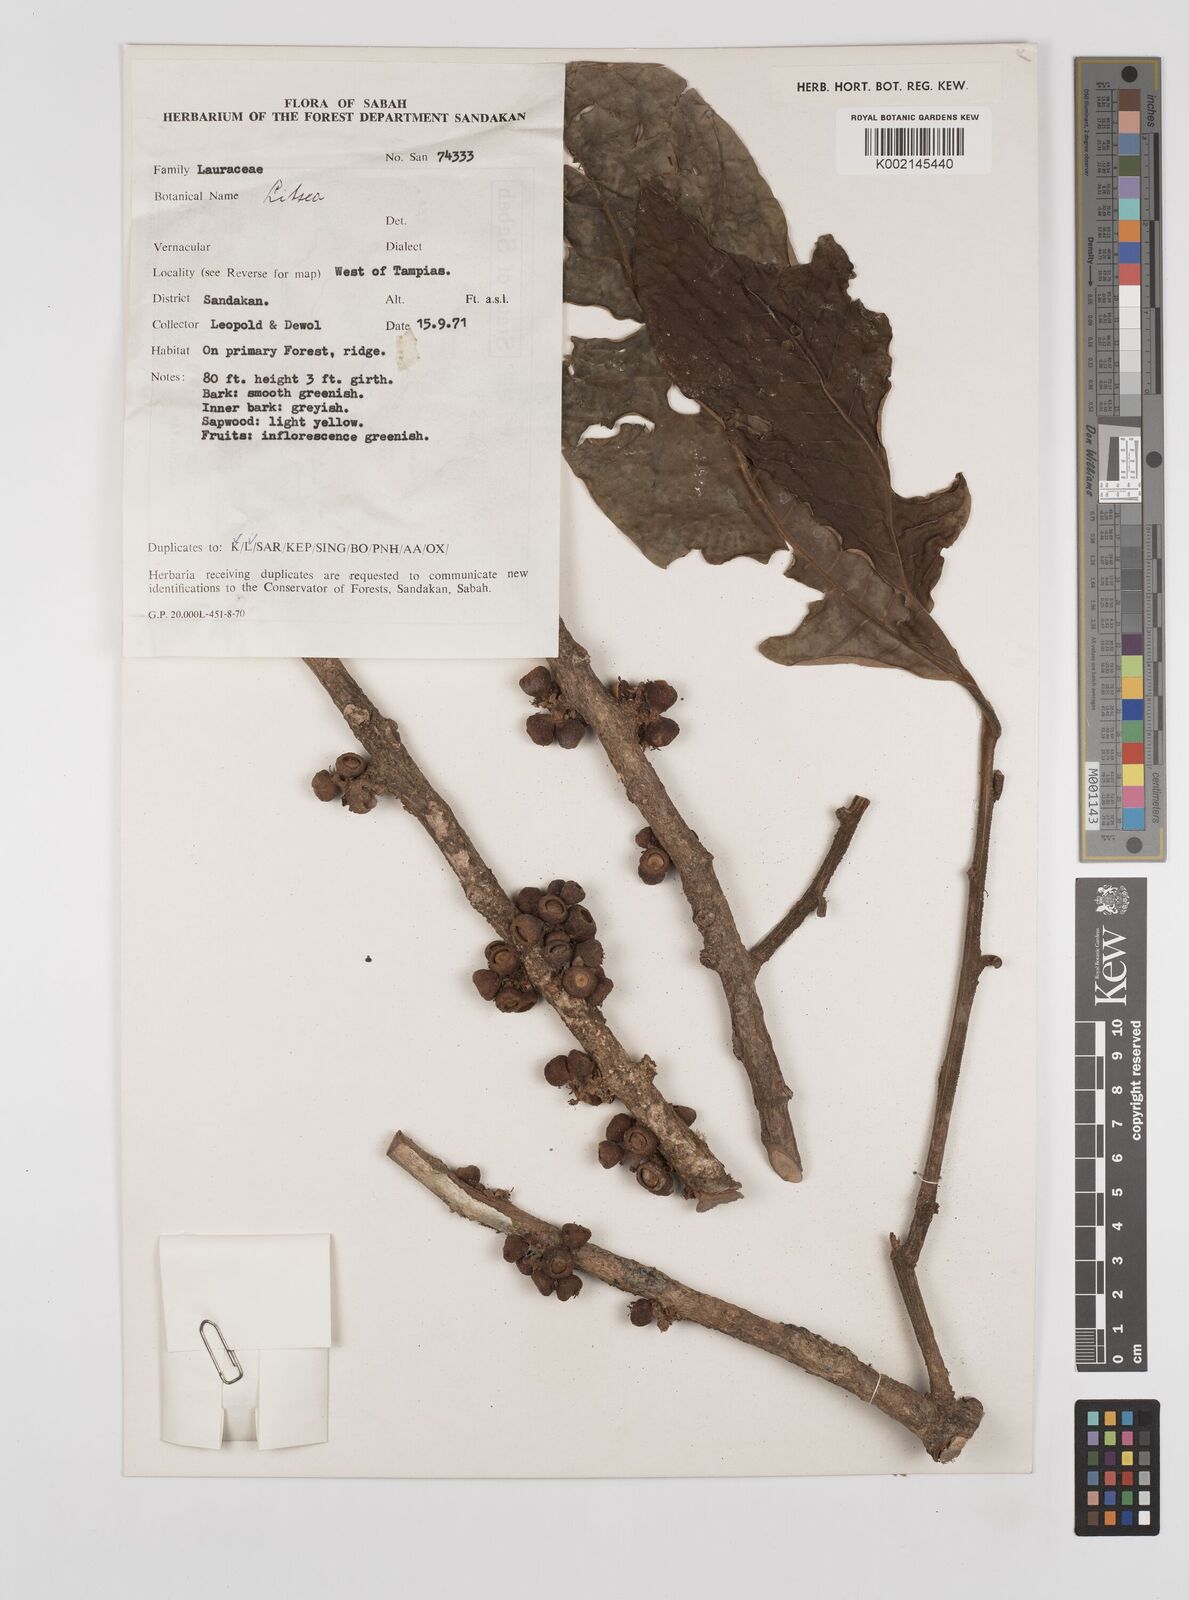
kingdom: Plantae
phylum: Tracheophyta
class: Magnoliopsida
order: Laurales
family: Lauraceae
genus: Litsea
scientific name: Litsea
